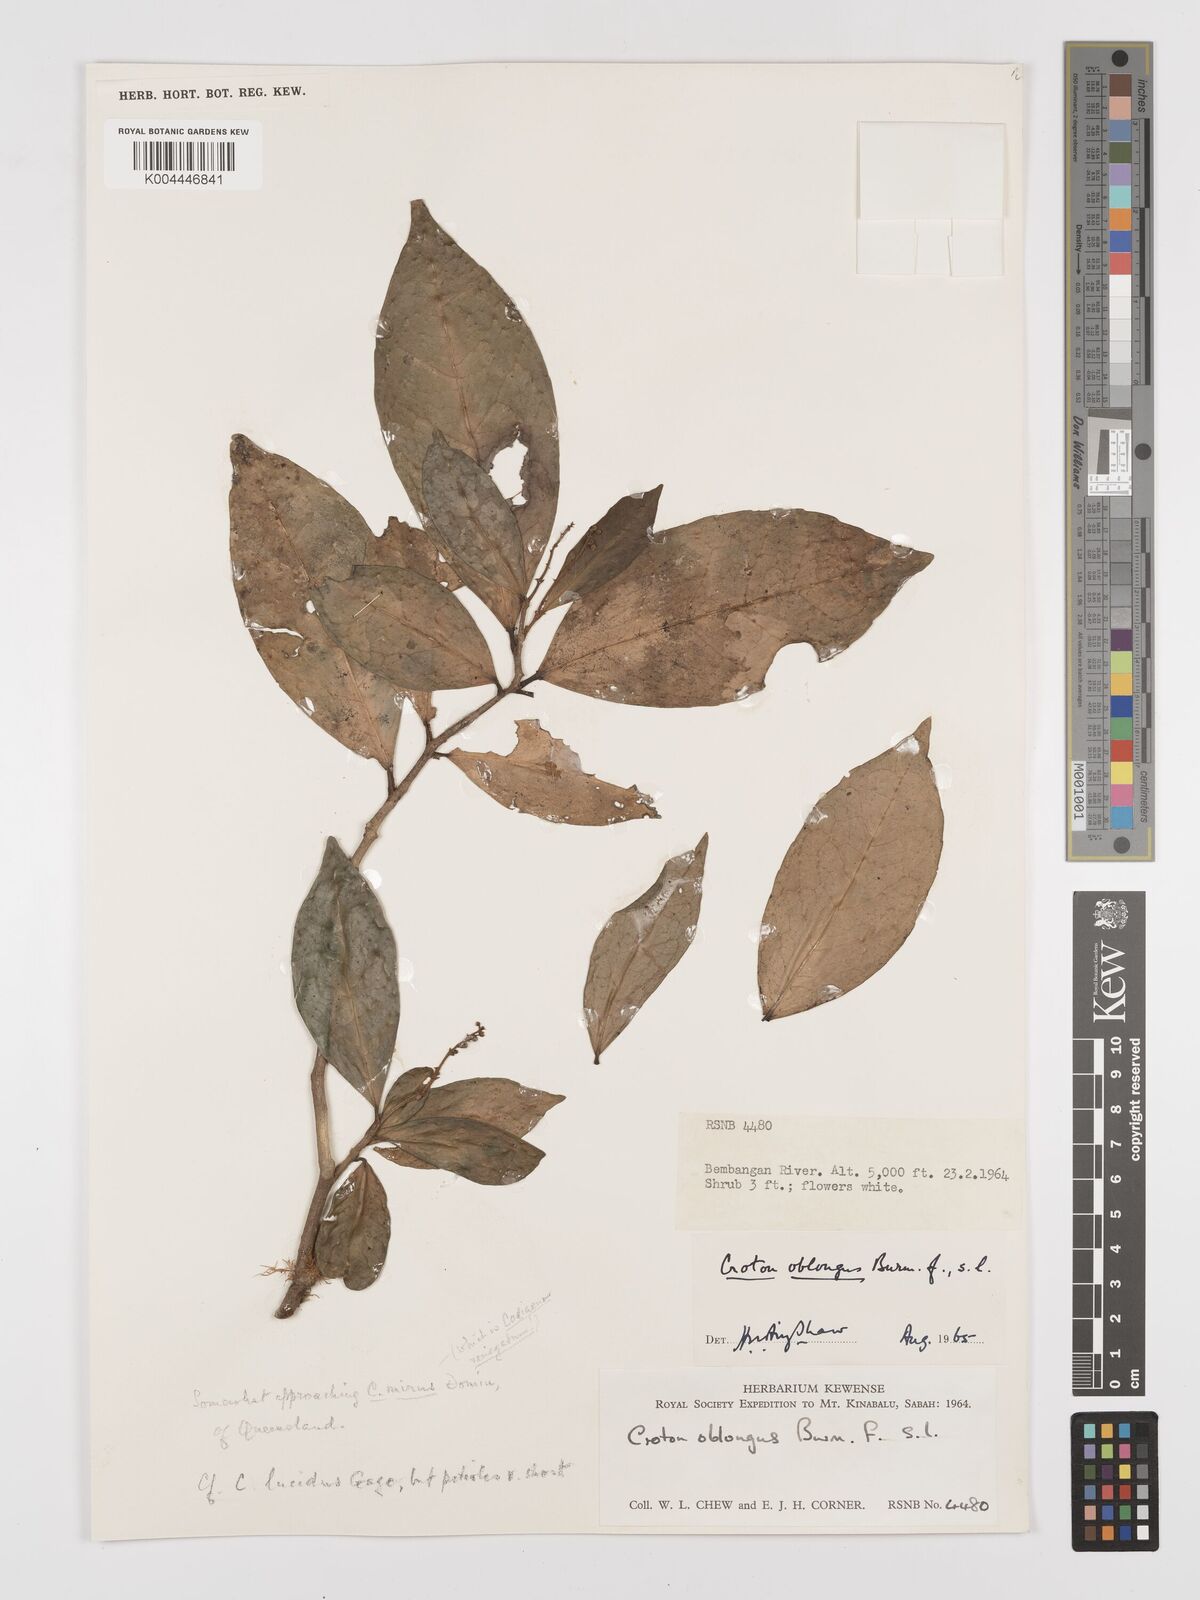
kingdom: Plantae
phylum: Tracheophyta
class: Magnoliopsida
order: Malpighiales
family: Euphorbiaceae
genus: Croton
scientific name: Croton
